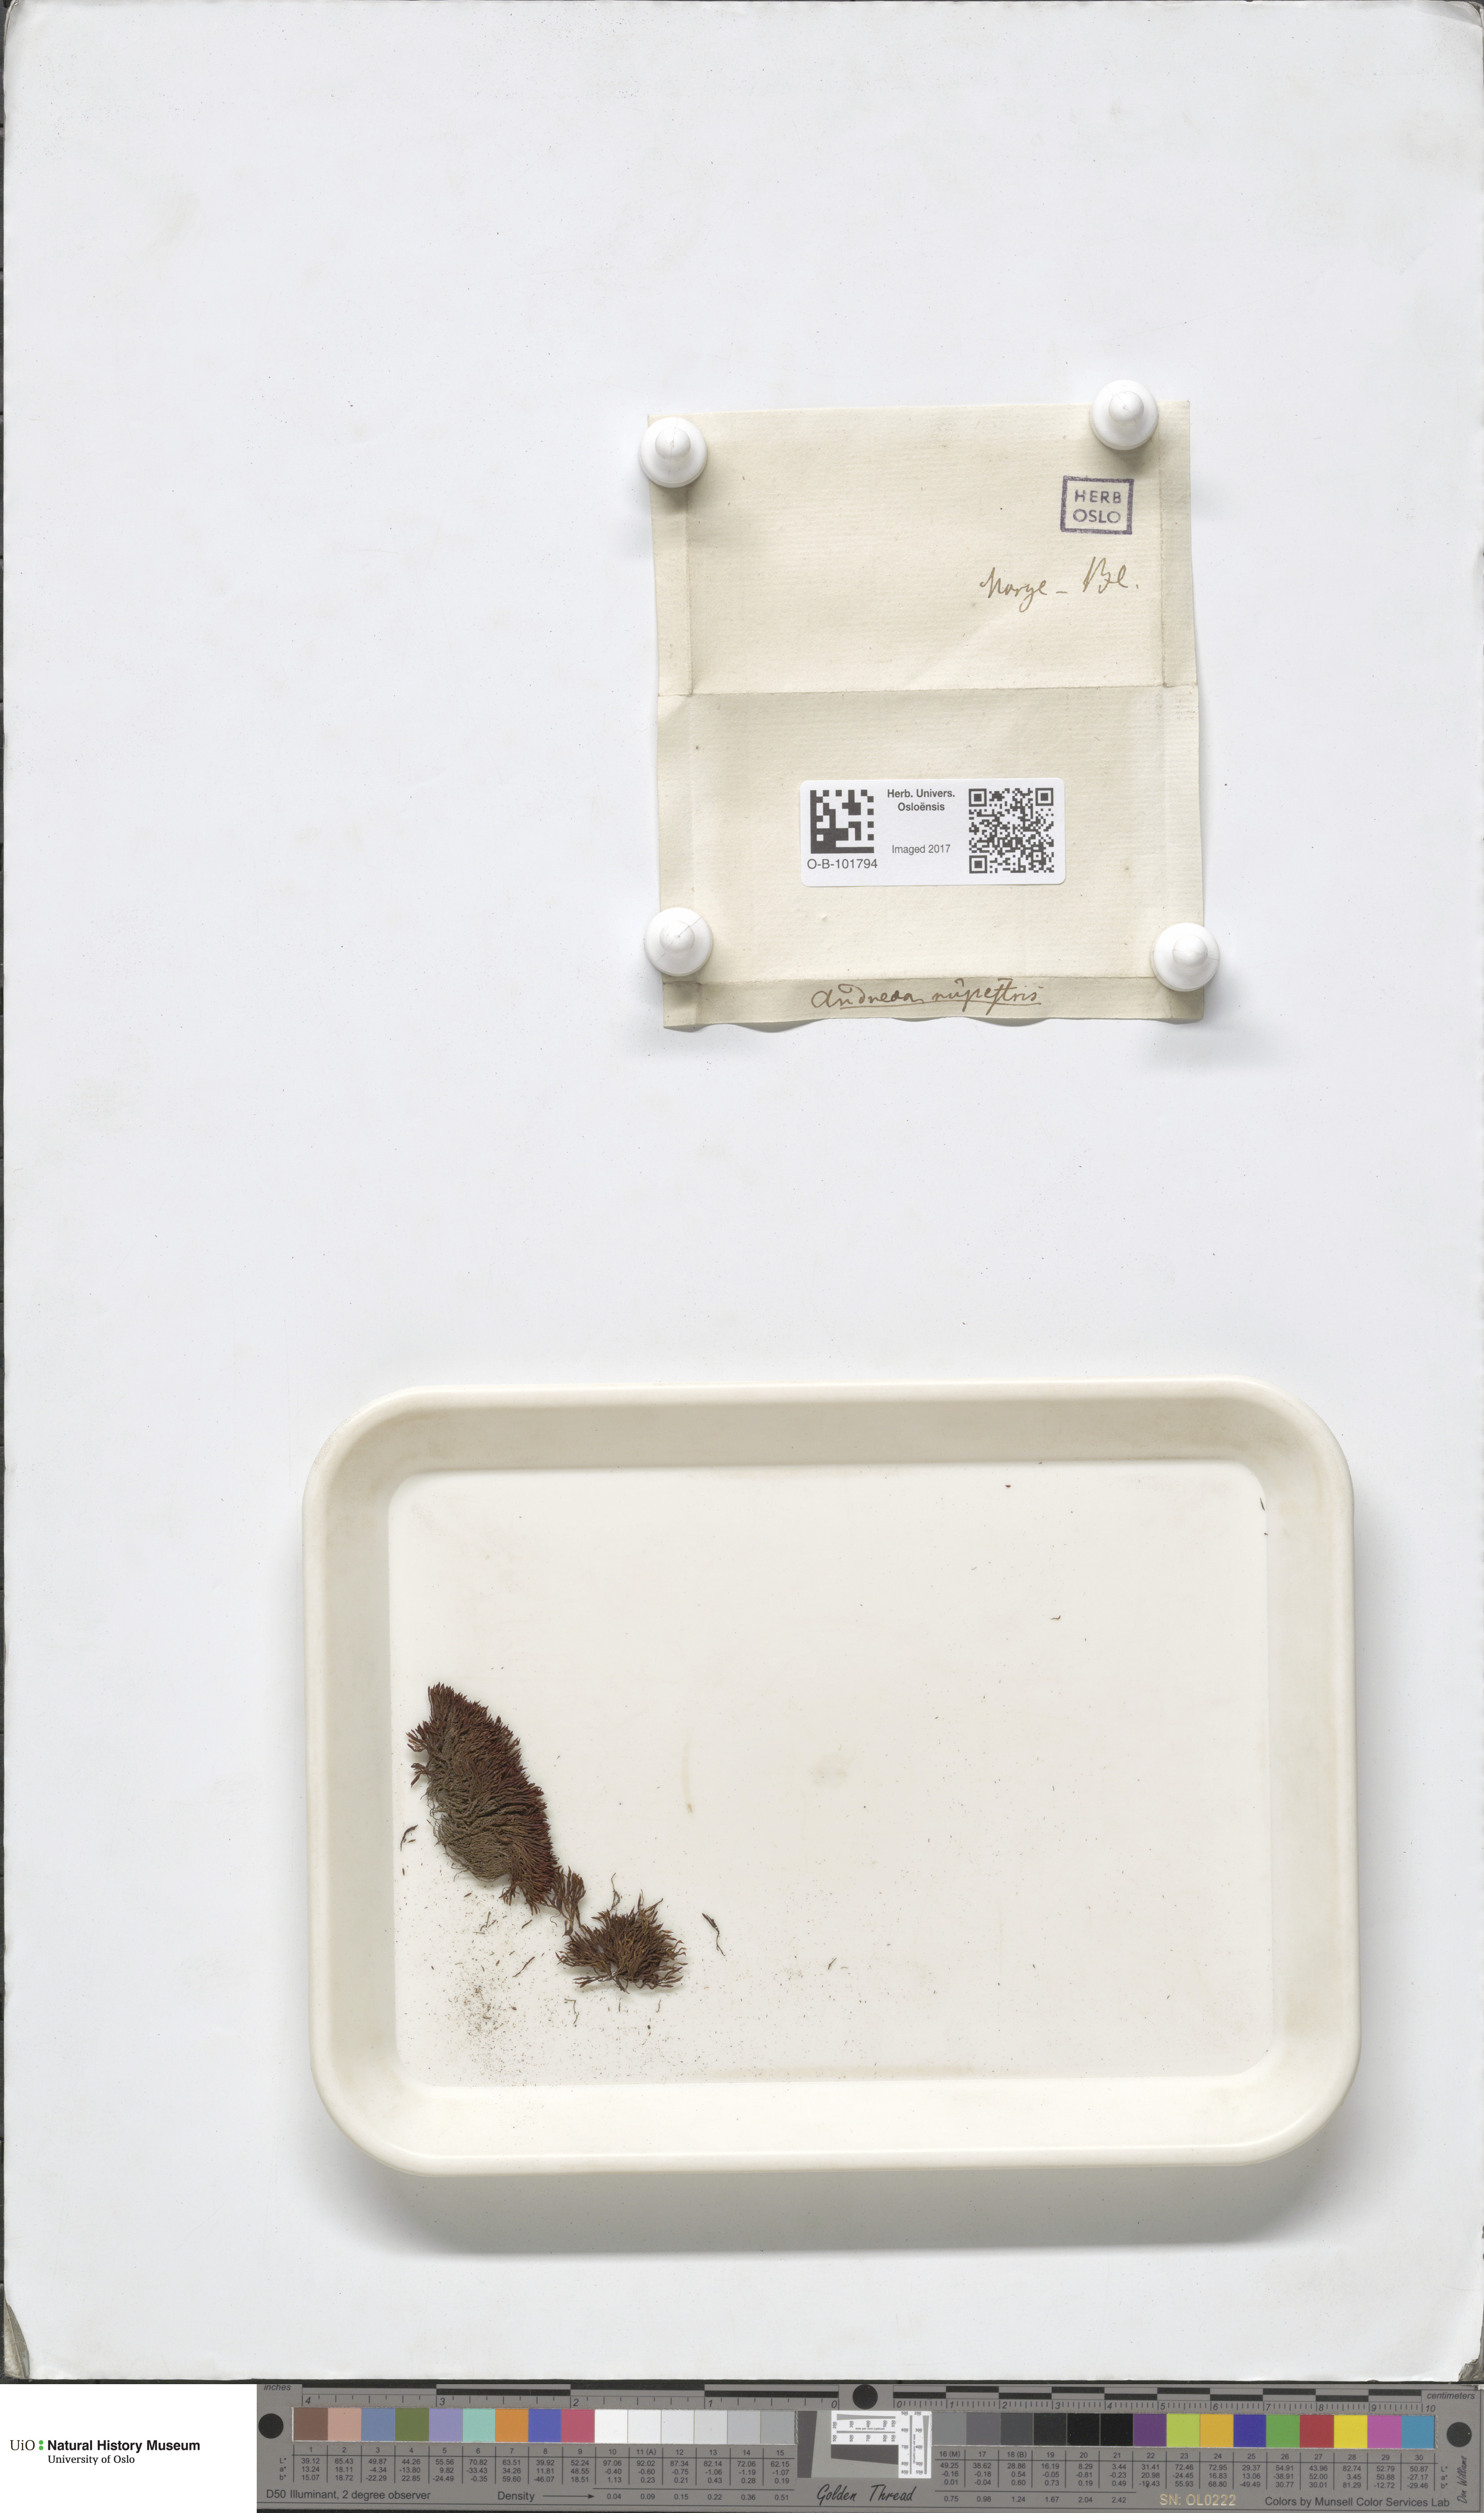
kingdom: Plantae
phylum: Bryophyta
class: Andreaeopsida
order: Andreaeales
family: Andreaeaceae
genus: Andreaea
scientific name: Andreaea rupestris
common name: Black rock moss
